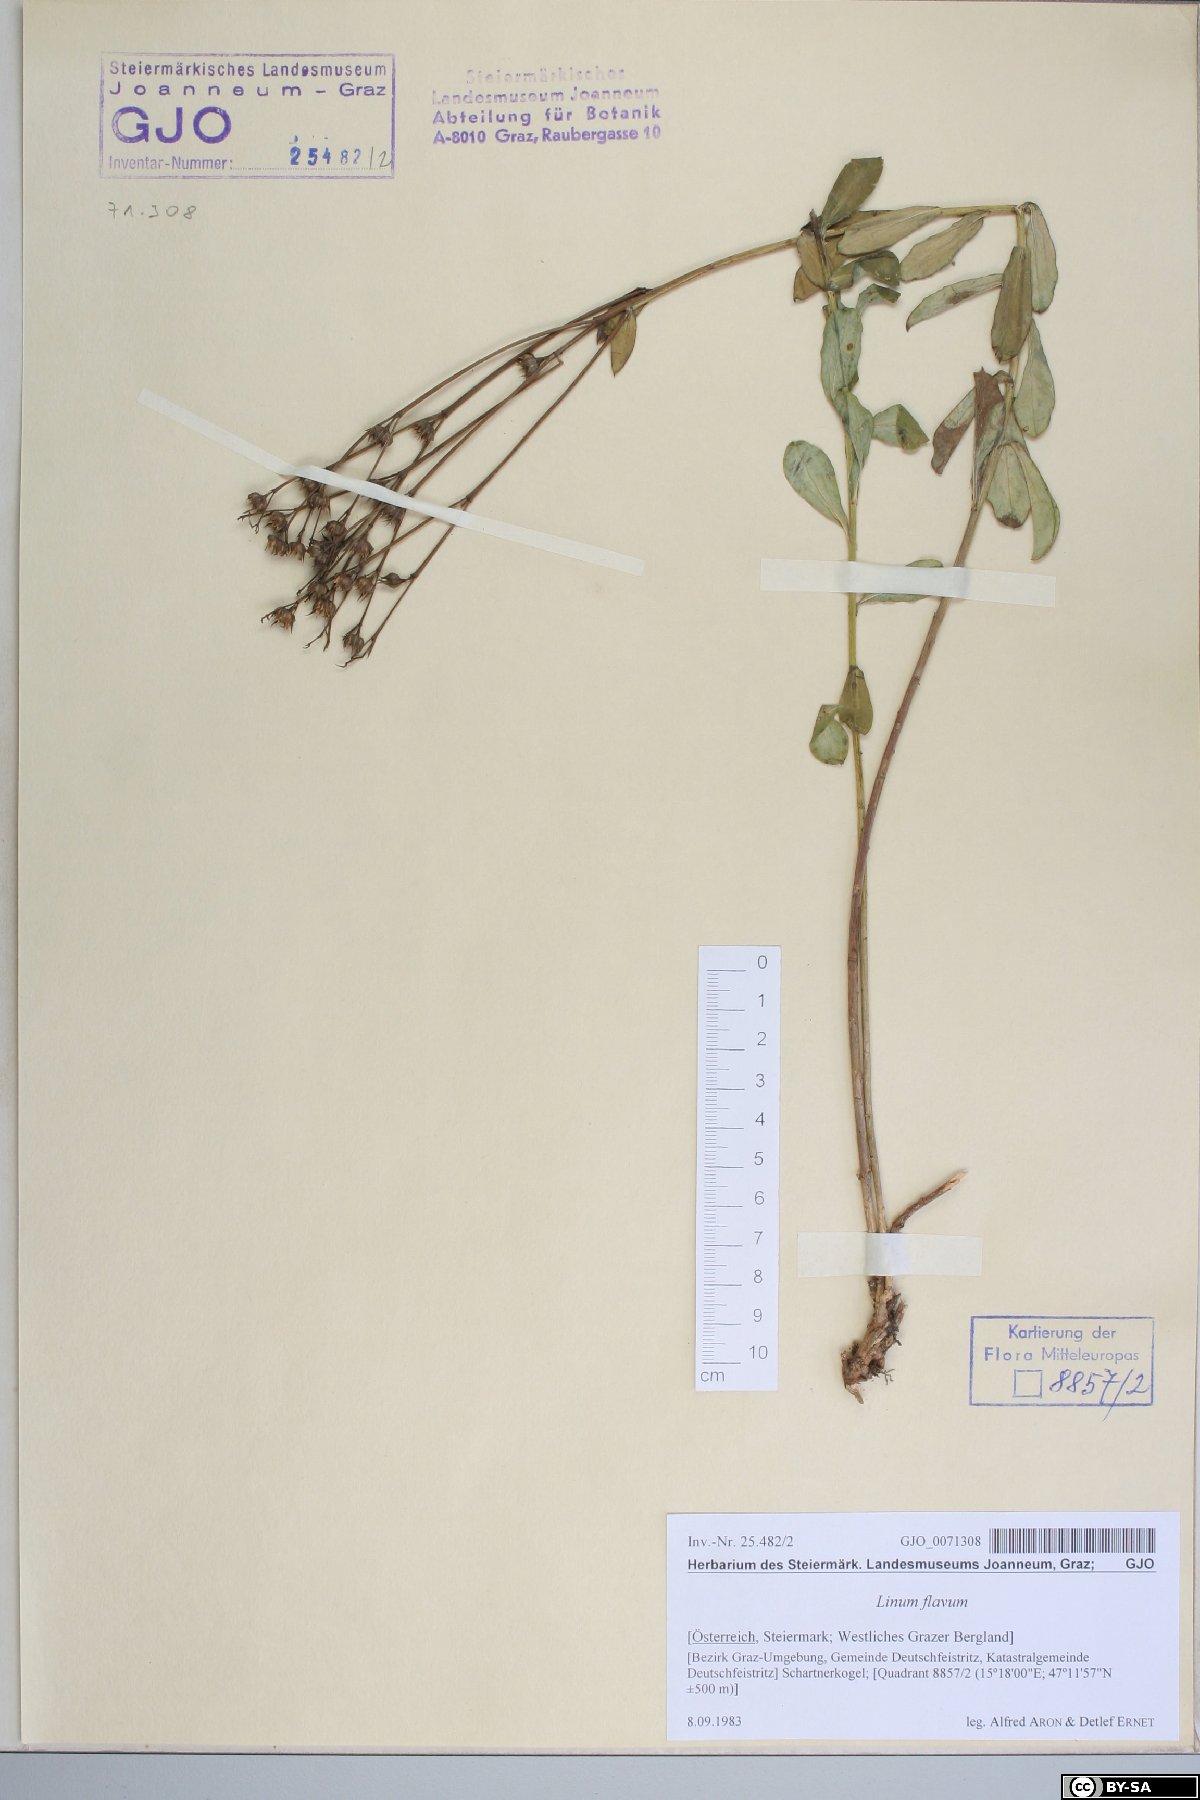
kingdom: Plantae
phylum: Tracheophyta
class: Magnoliopsida
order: Malpighiales
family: Linaceae
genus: Linum
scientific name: Linum flavum
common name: Yellow flax
